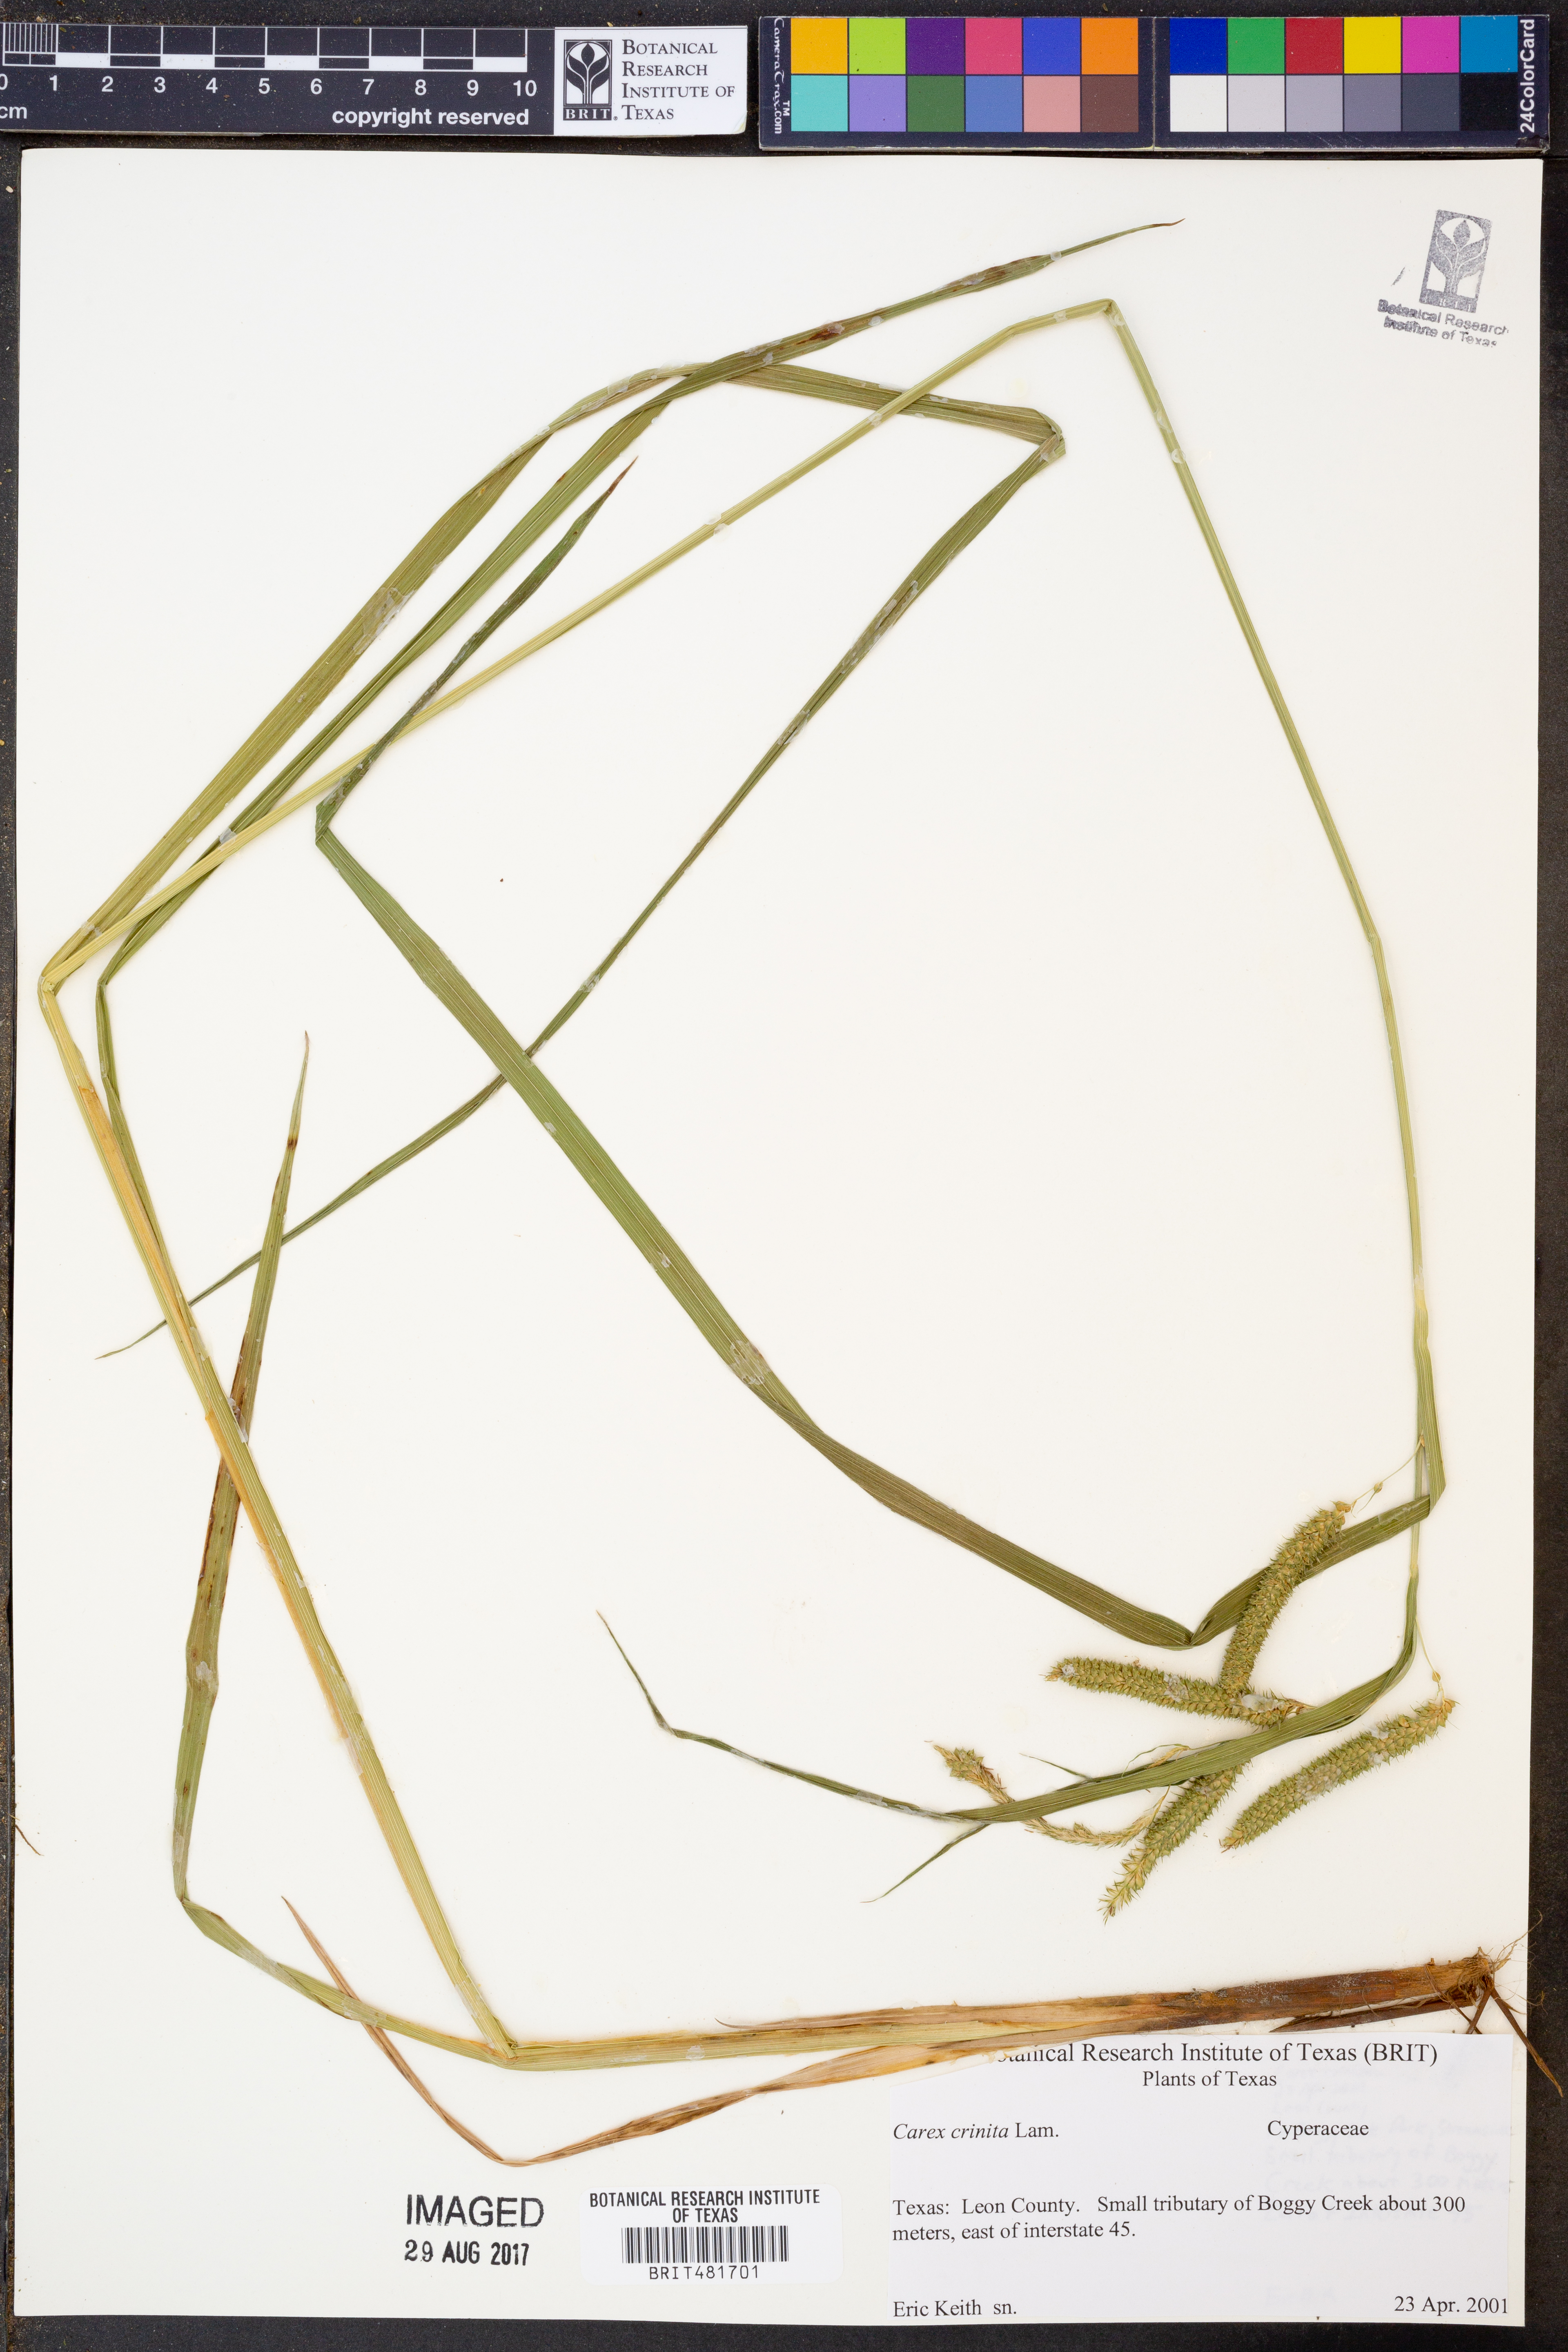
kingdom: Plantae
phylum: Tracheophyta
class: Liliopsida
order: Poales
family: Cyperaceae
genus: Carex
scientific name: Carex crinita
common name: Fringed sedge
